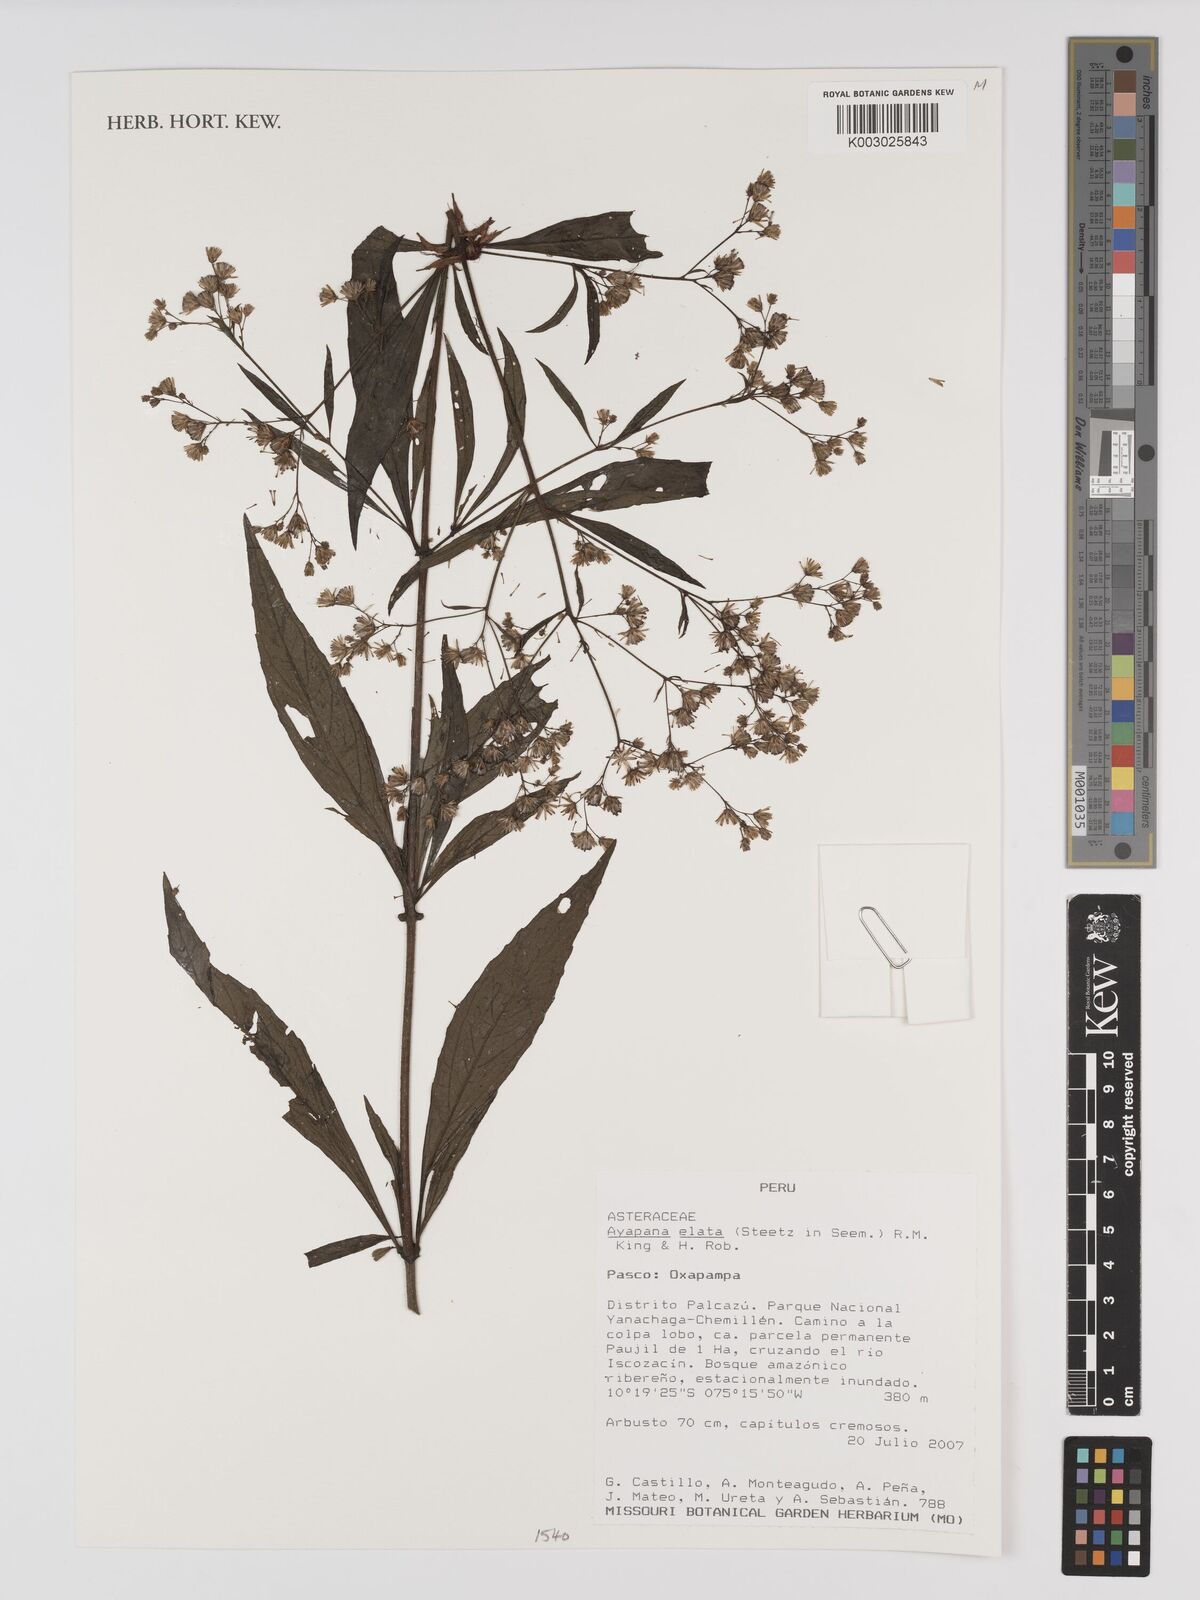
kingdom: Plantae
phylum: Tracheophyta
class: Magnoliopsida
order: Asterales
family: Asteraceae
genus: Ayapana
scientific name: Ayapana elata
